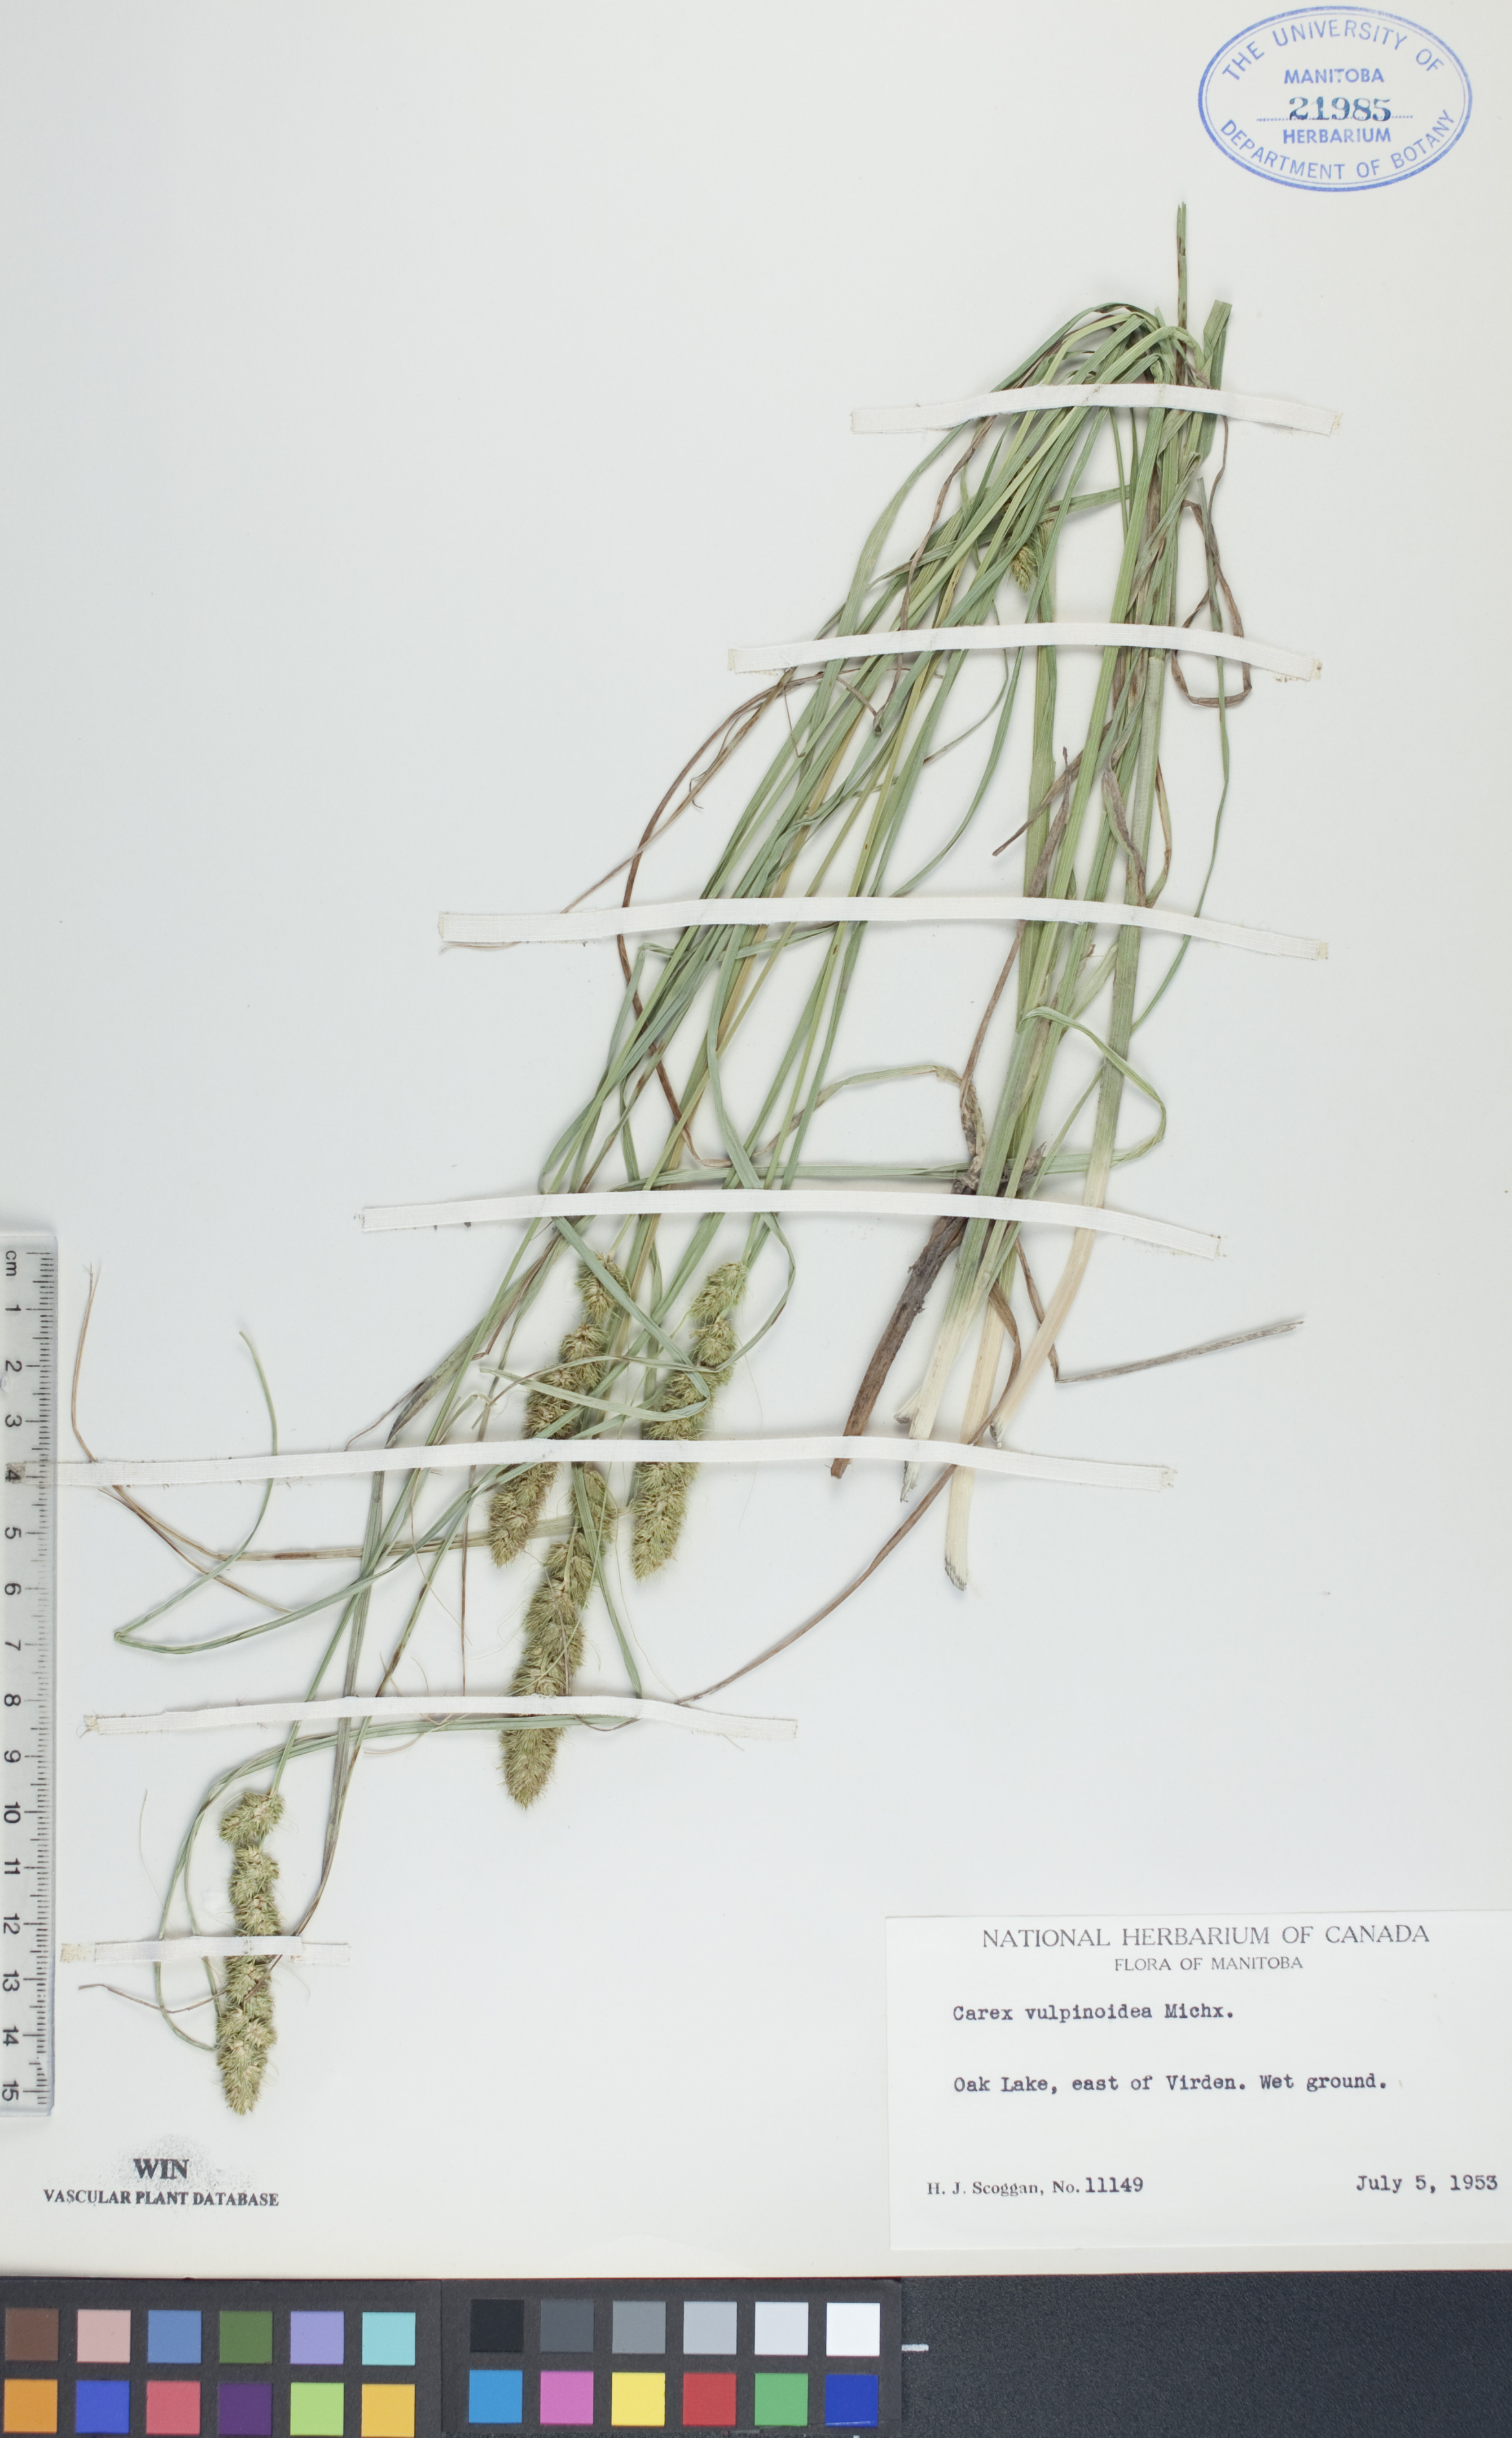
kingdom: Plantae
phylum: Tracheophyta
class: Liliopsida
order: Poales
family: Cyperaceae
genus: Carex
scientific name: Carex vulpinoidea
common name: American fox-sedge
